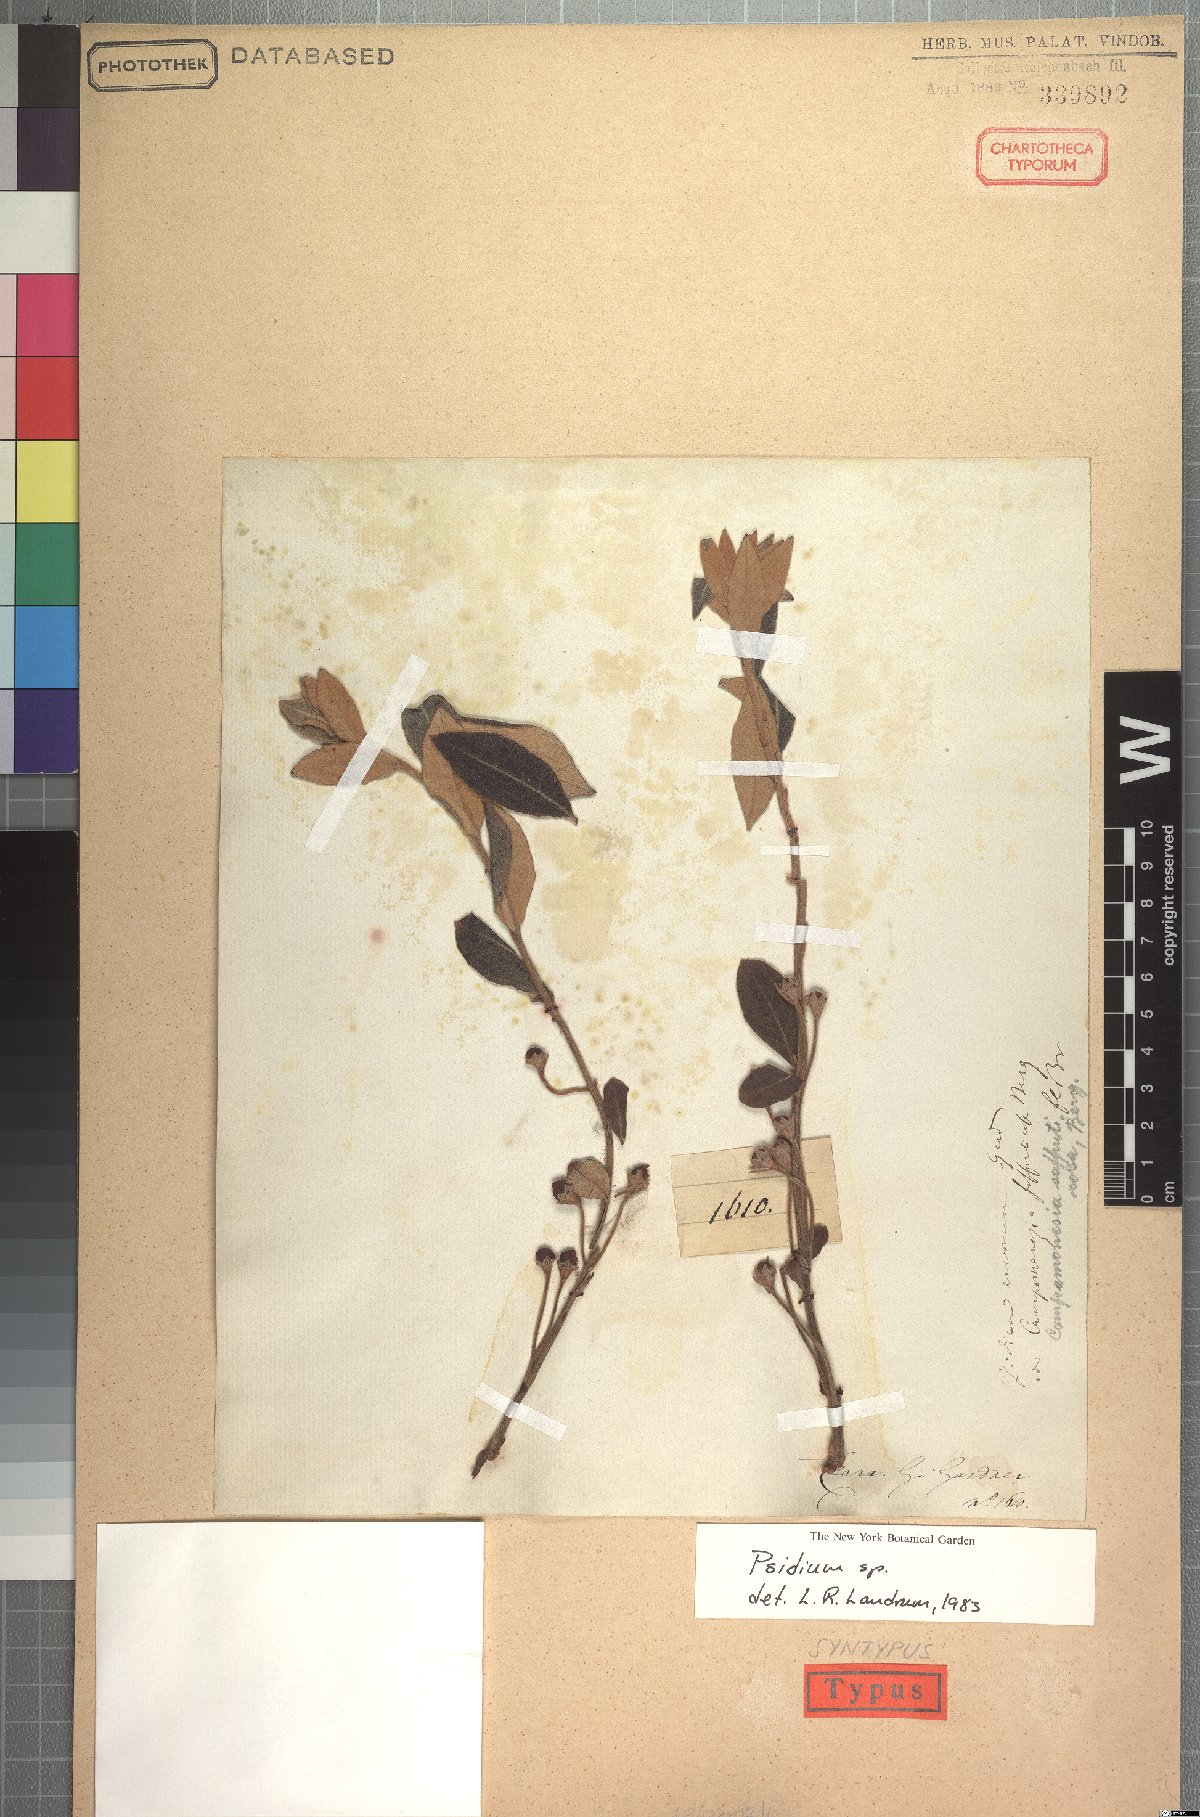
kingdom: Plantae
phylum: Tracheophyta
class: Magnoliopsida
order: Myrtales
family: Myrtaceae
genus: Psidium
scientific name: Psidium larueotteanum
